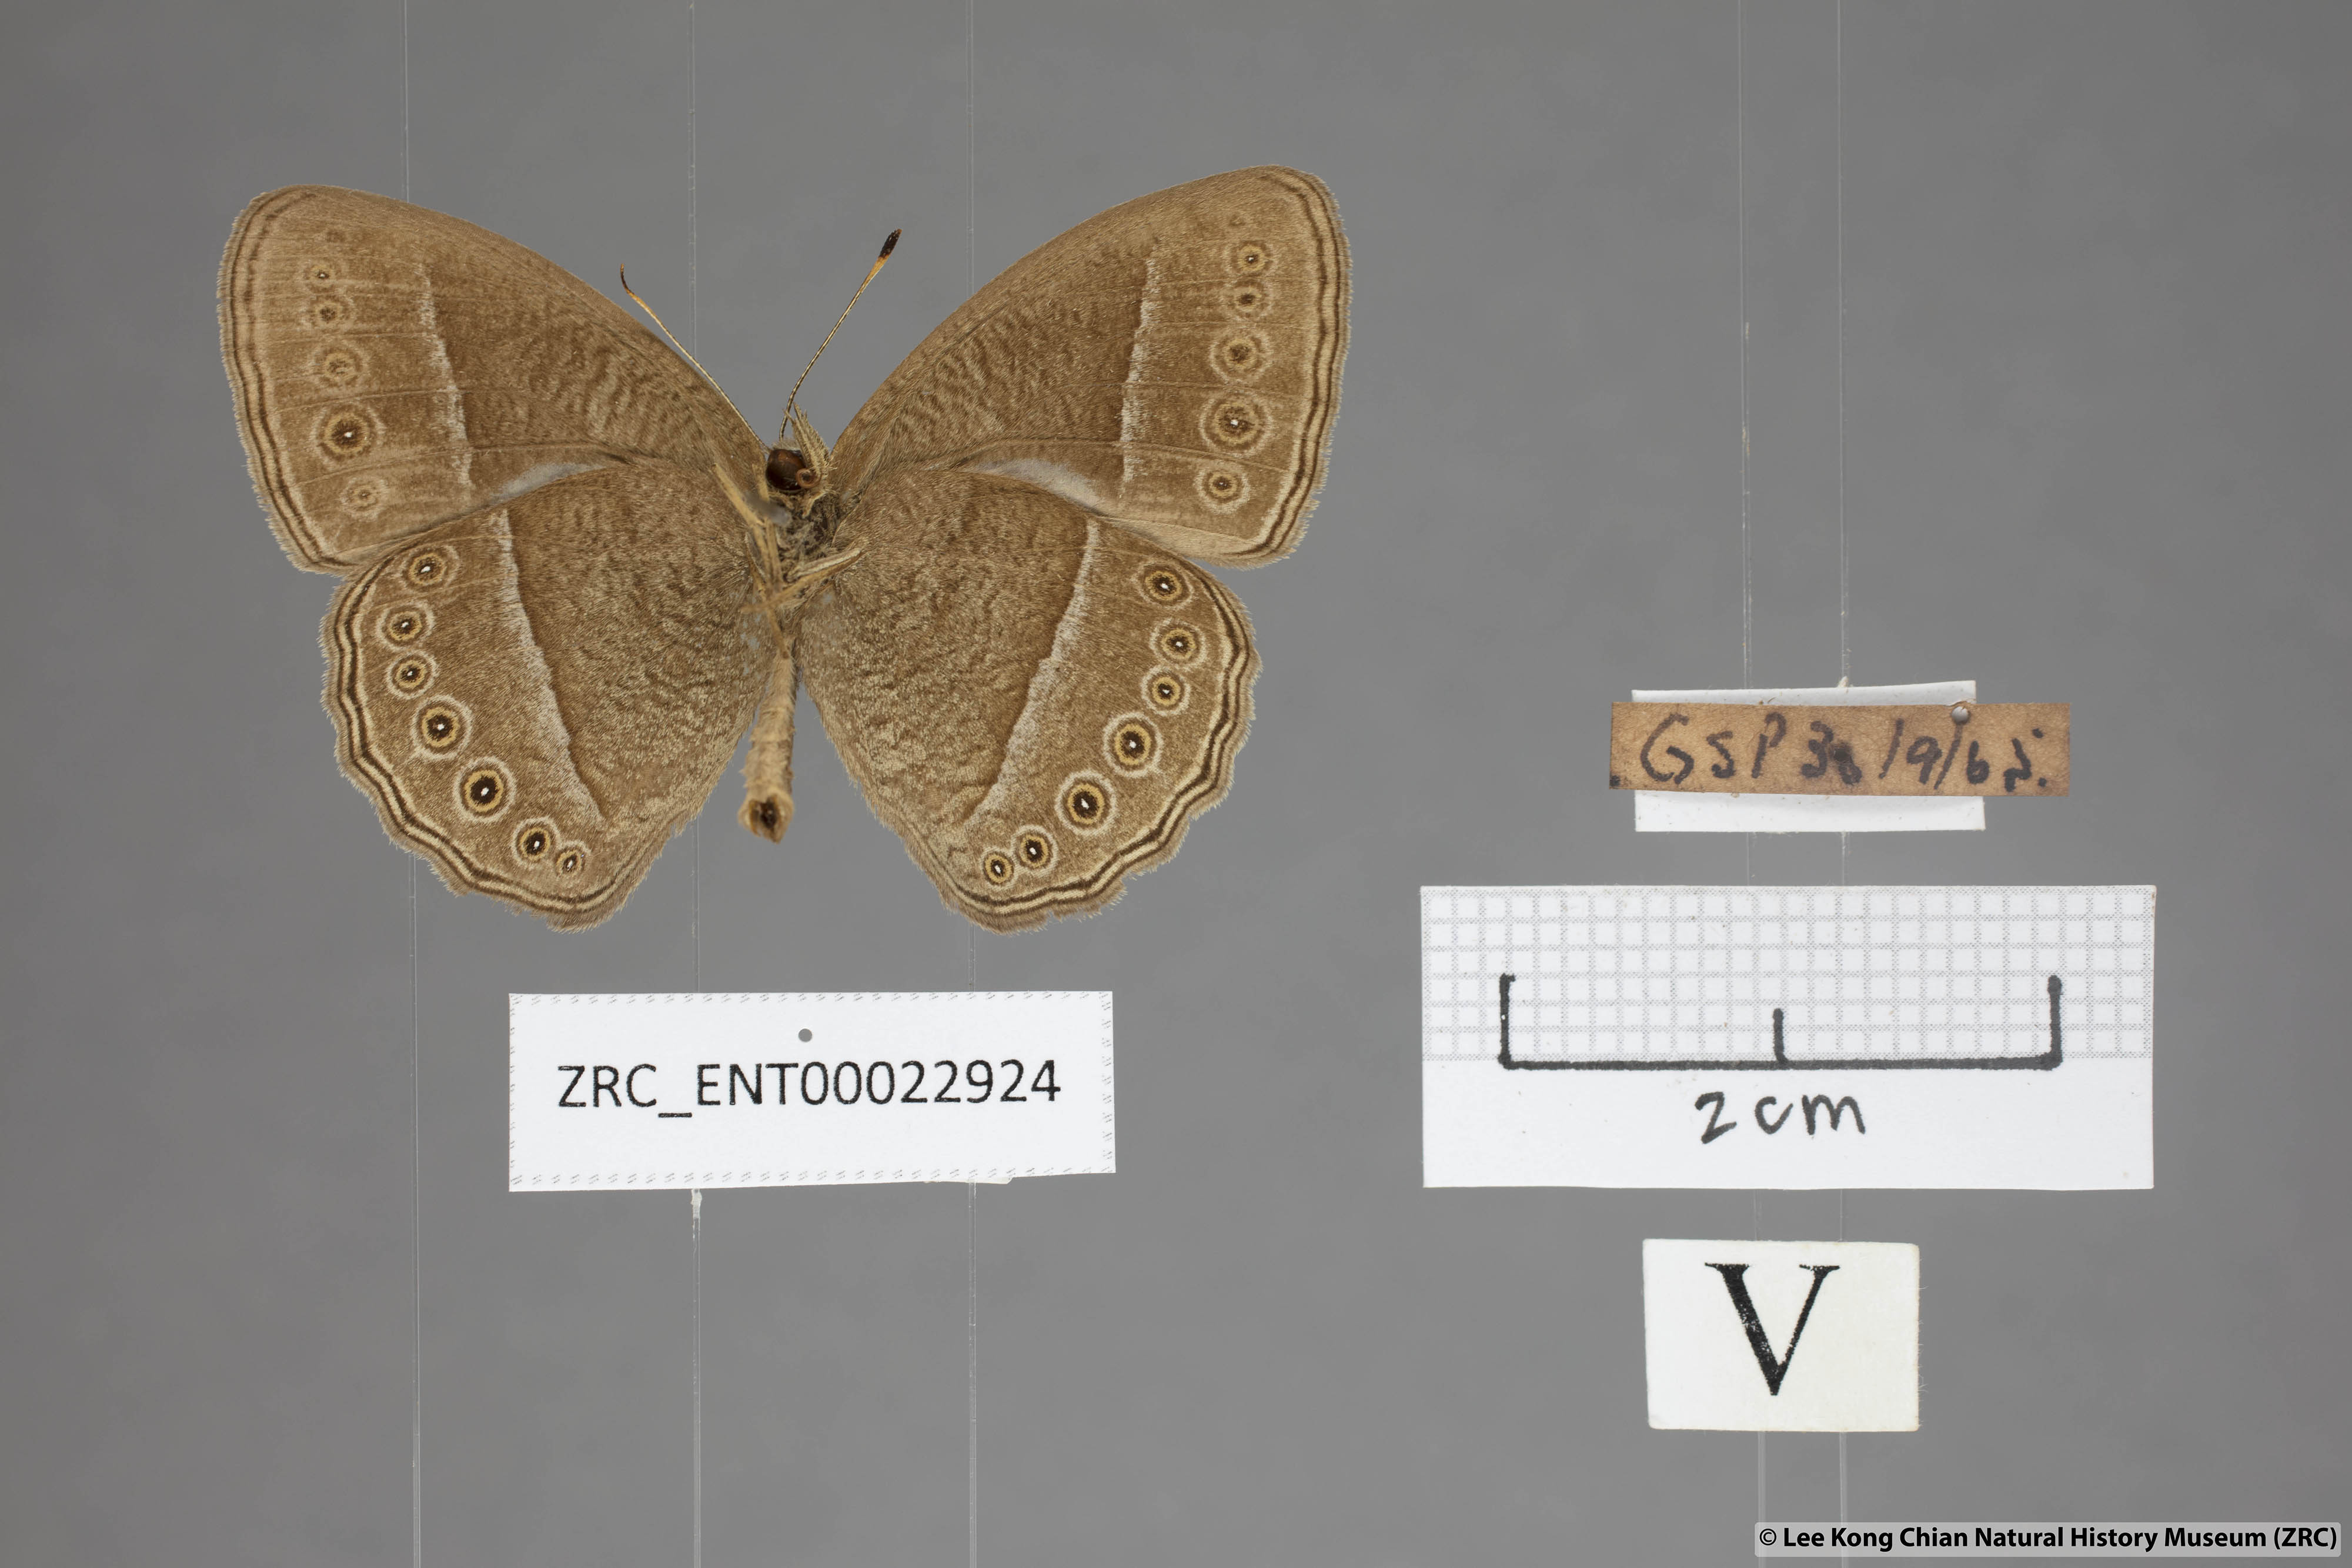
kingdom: Animalia
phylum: Arthropoda
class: Insecta
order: Lepidoptera
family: Nymphalidae
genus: Mycalesis
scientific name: Mycalesis janardana
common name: Common bush brown
